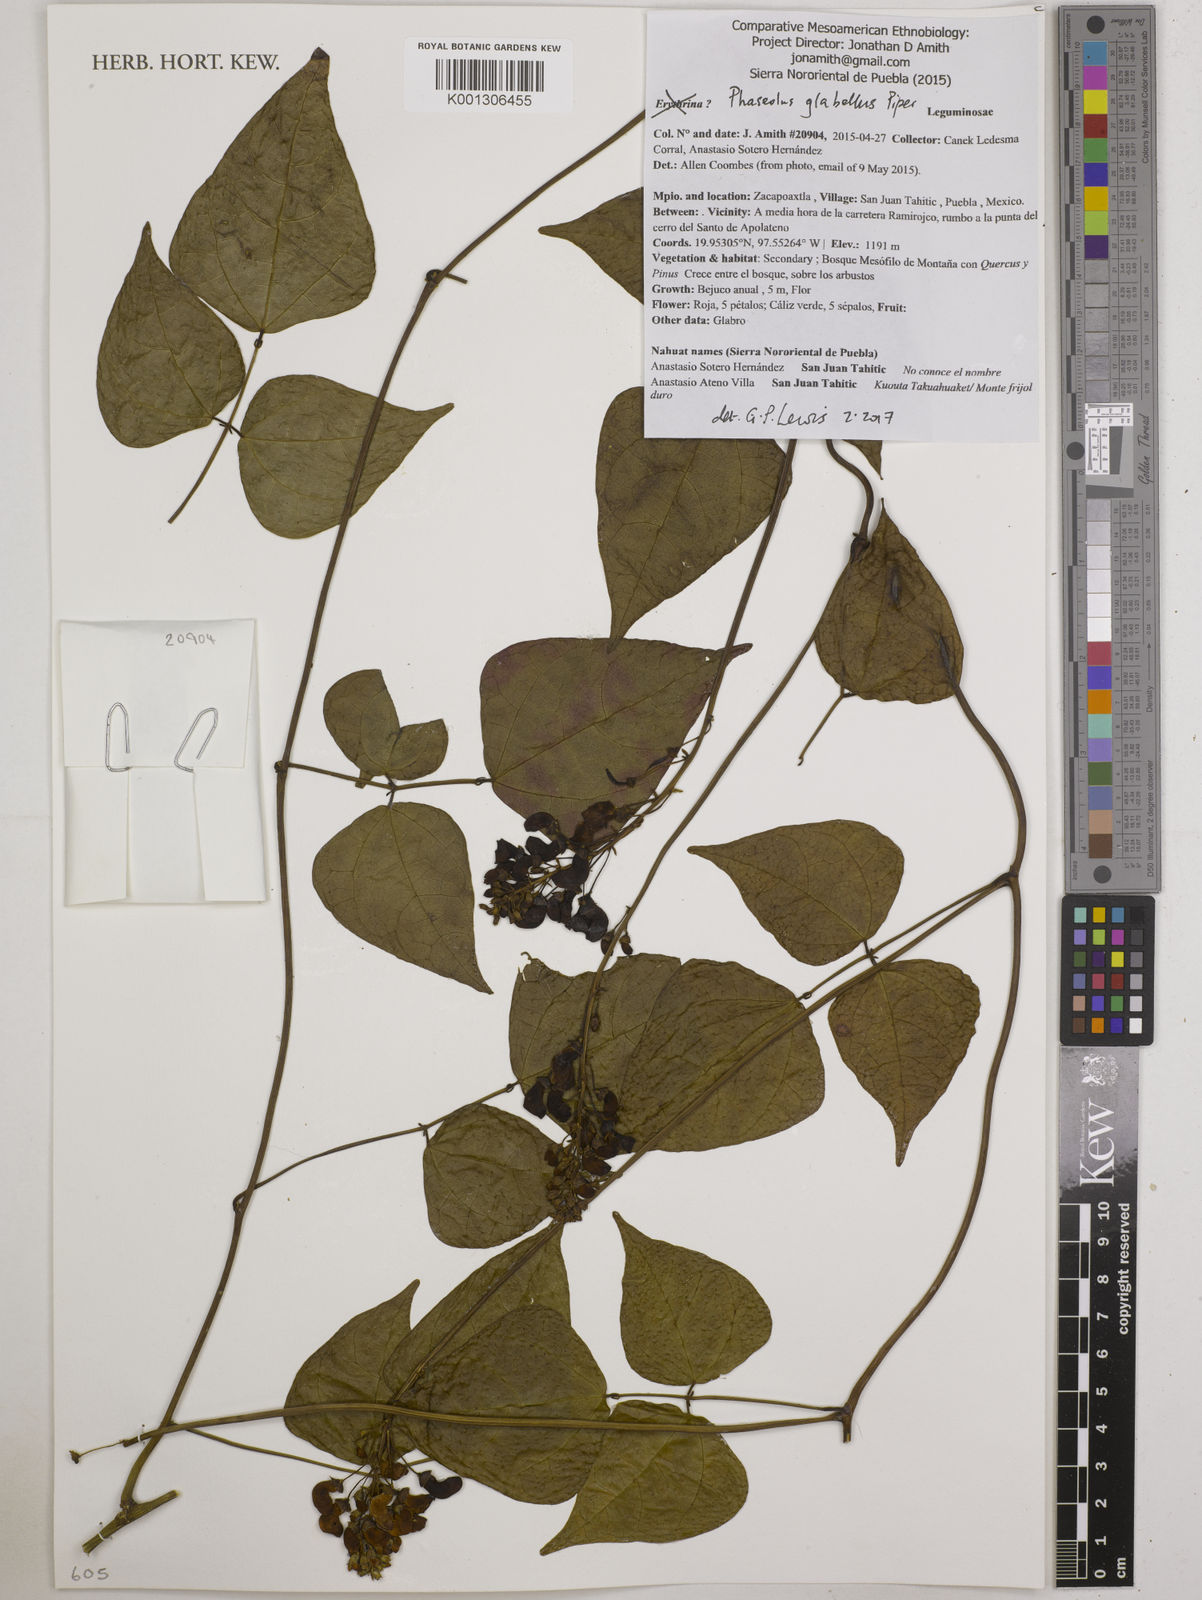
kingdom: Plantae
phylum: Tracheophyta
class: Magnoliopsida
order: Fabales
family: Fabaceae
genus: Phaseolus
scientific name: Phaseolus glabellus
